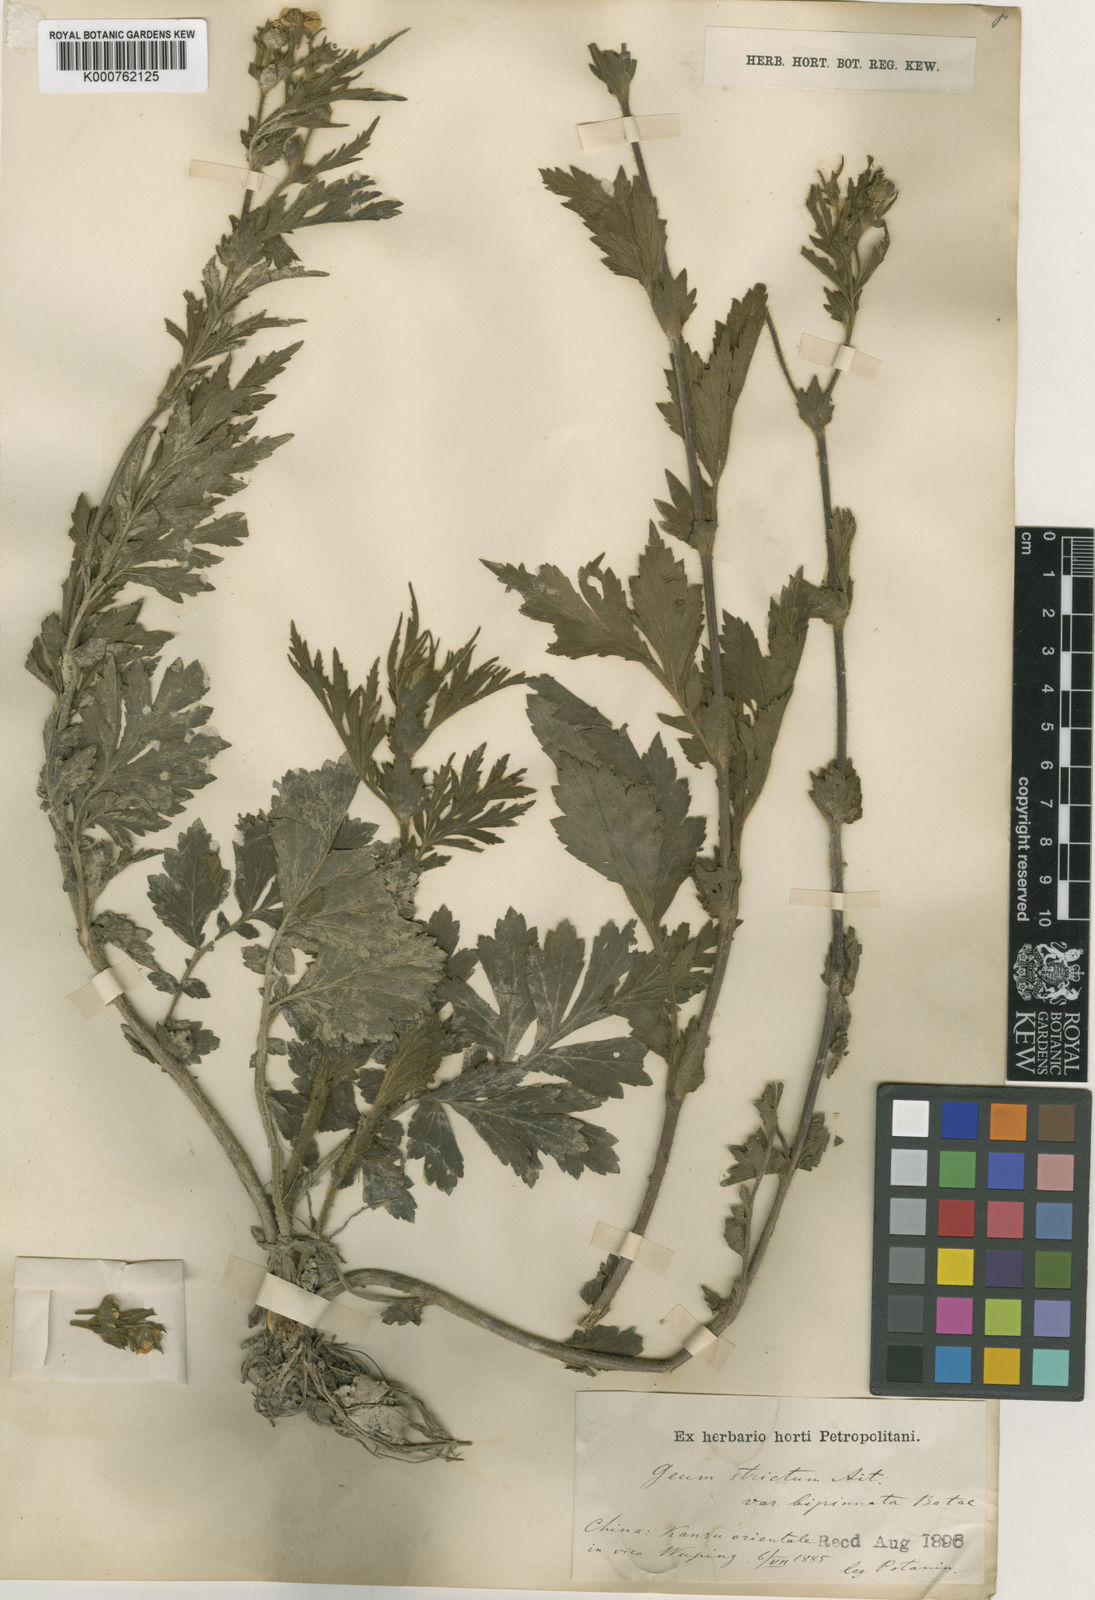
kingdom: Plantae
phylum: Tracheophyta
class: Magnoliopsida
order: Rosales
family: Rosaceae
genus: Geum
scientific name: Geum aleppicum
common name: Yellow avens
